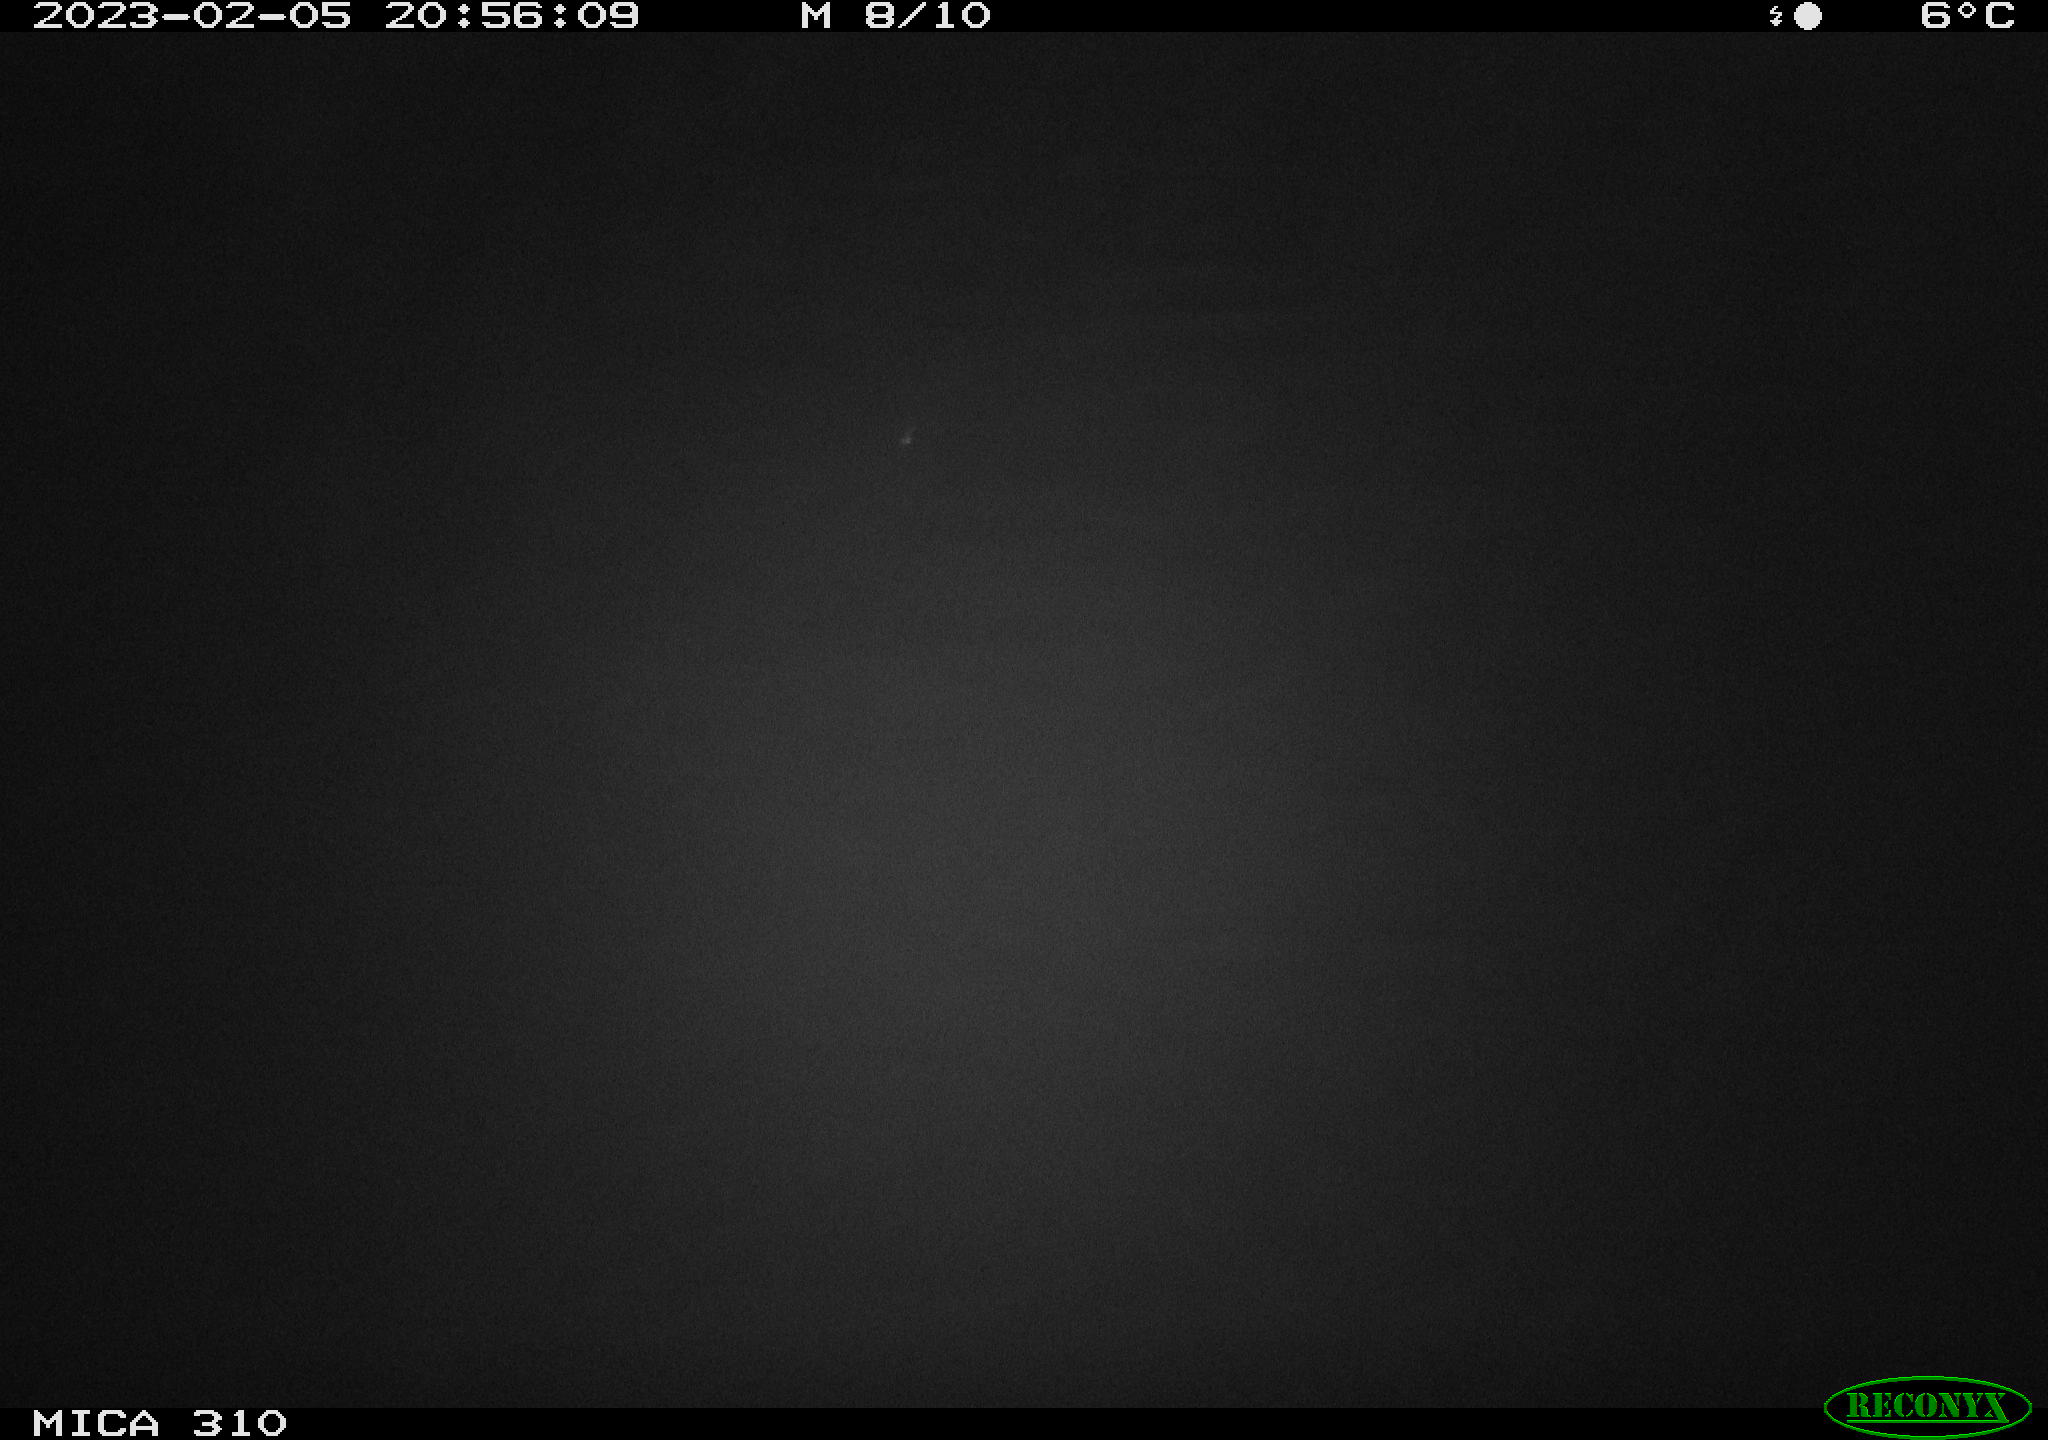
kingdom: Animalia
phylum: Chordata
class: Aves
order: Anseriformes
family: Anatidae
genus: Anas
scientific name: Anas
